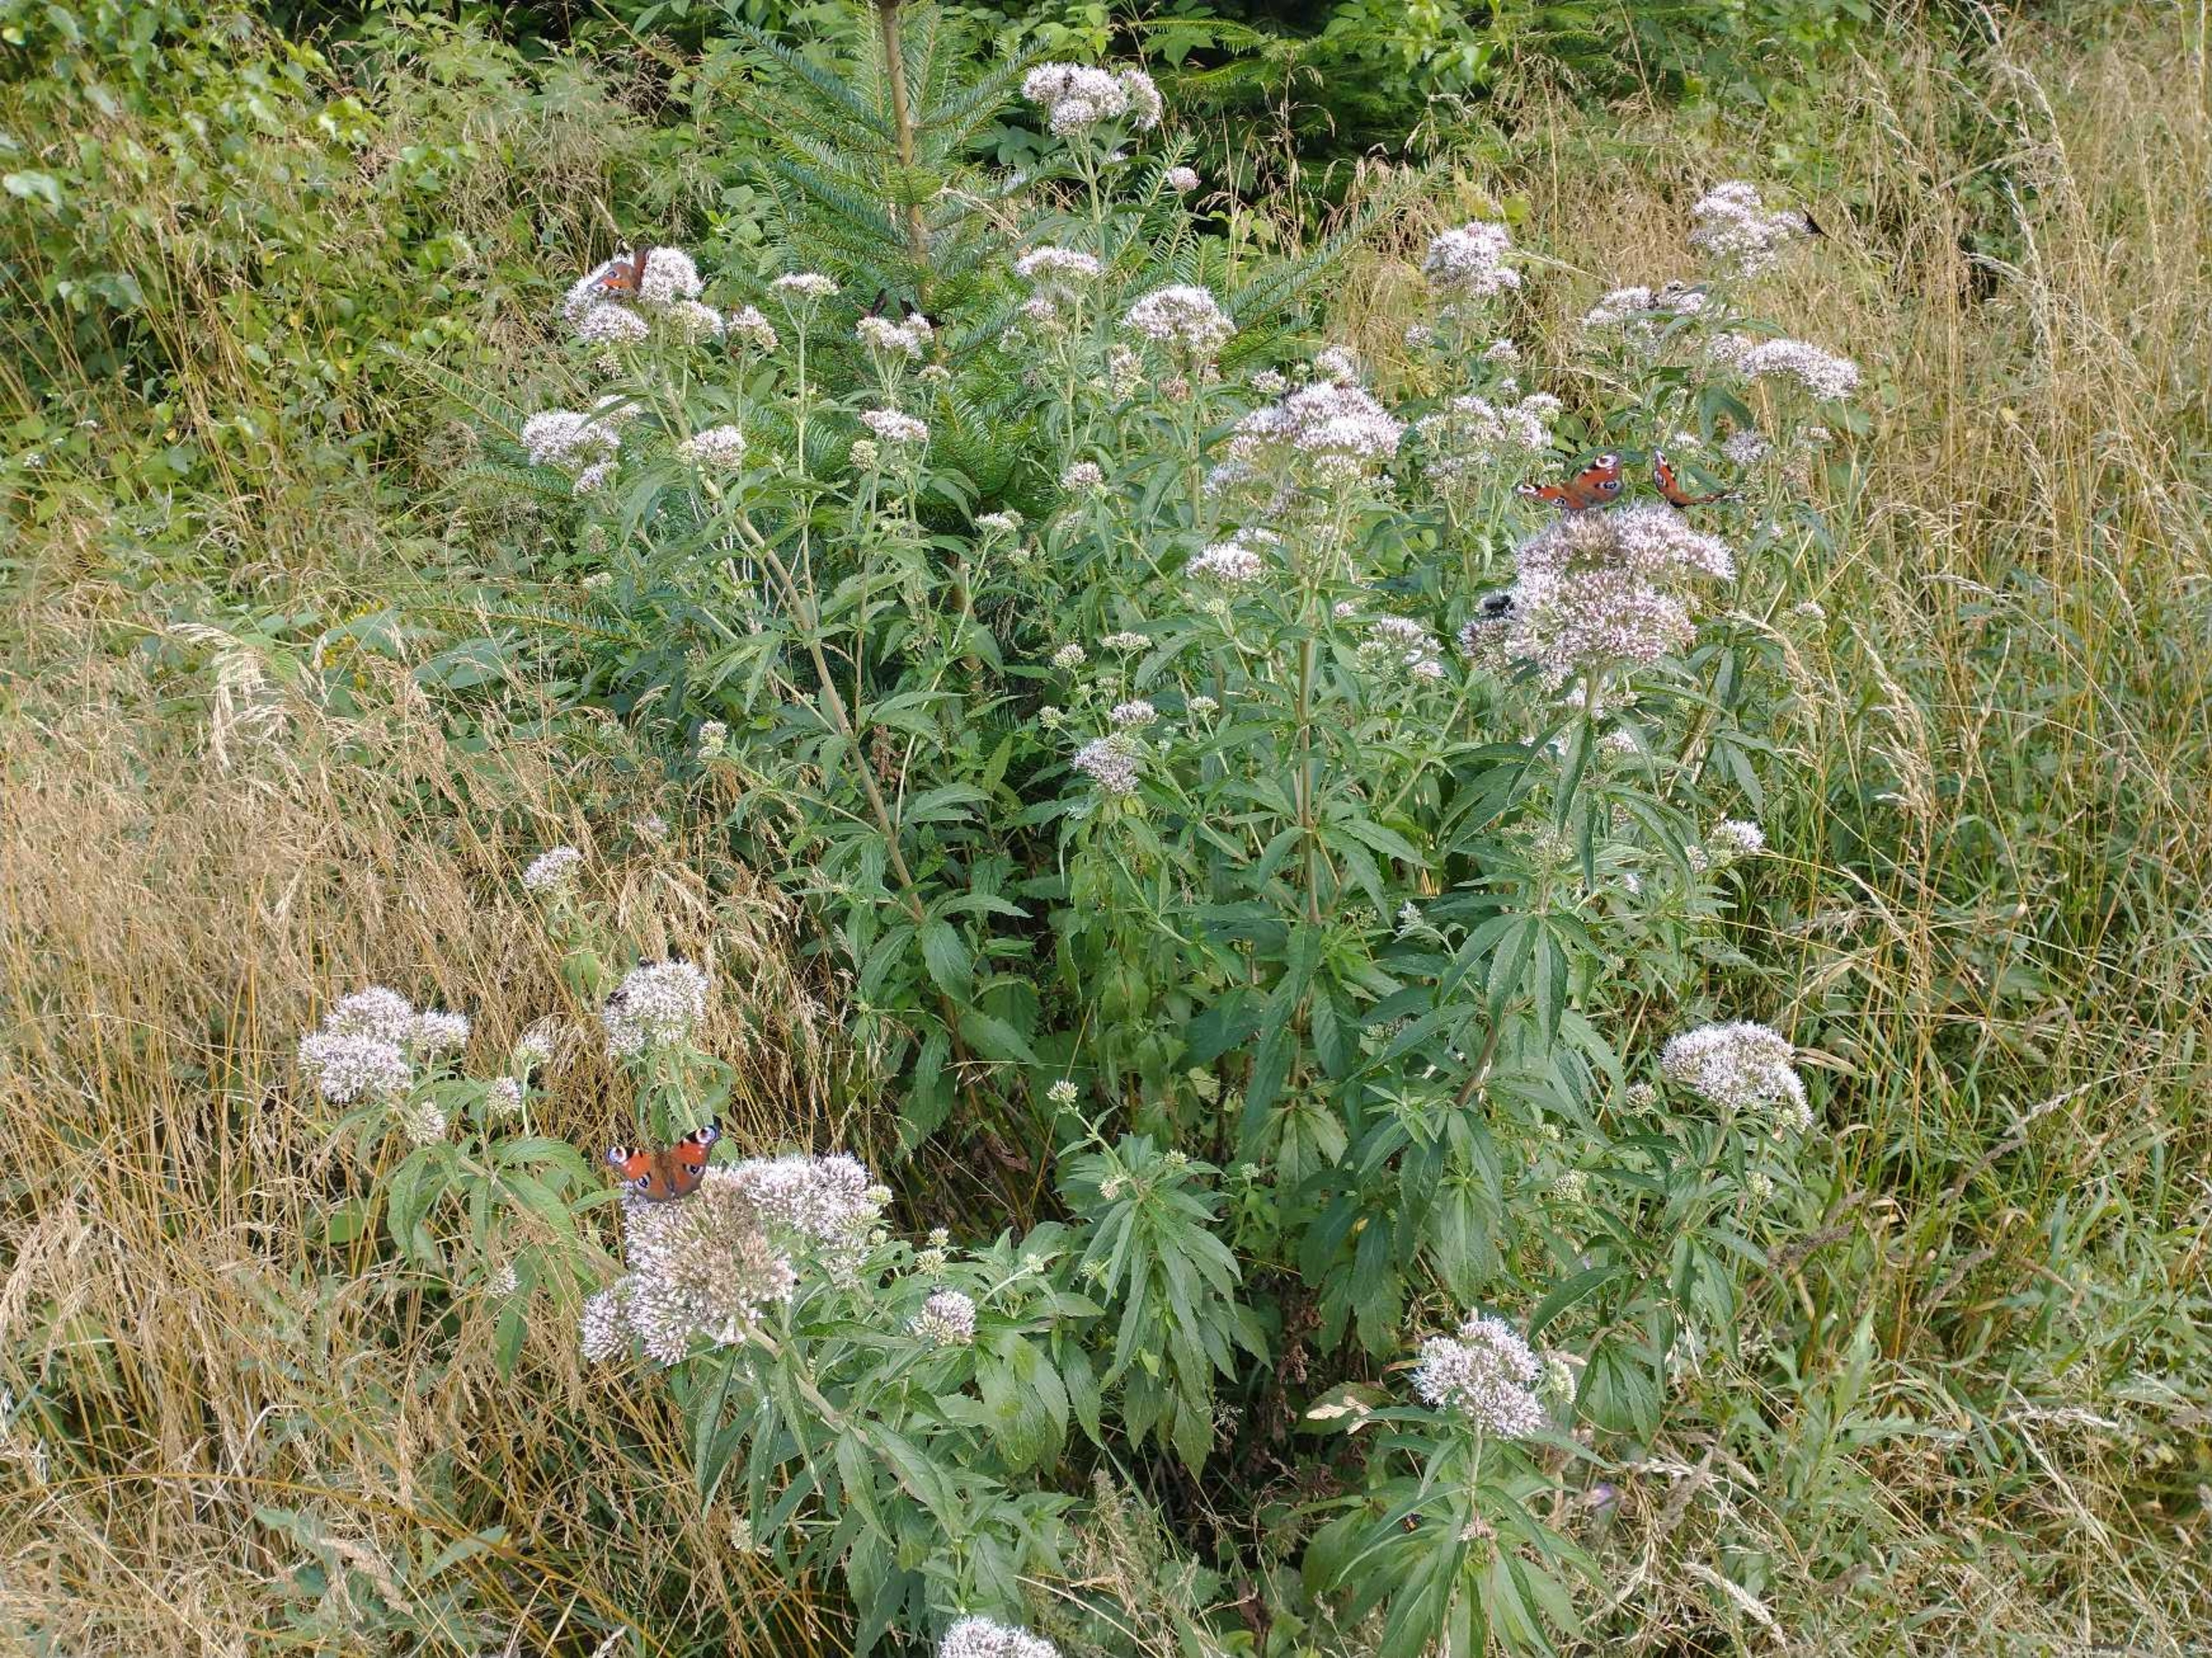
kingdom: Animalia
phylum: Arthropoda
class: Insecta
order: Lepidoptera
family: Nymphalidae
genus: Aglais
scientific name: Aglais io
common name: Dagpåfugleøje
